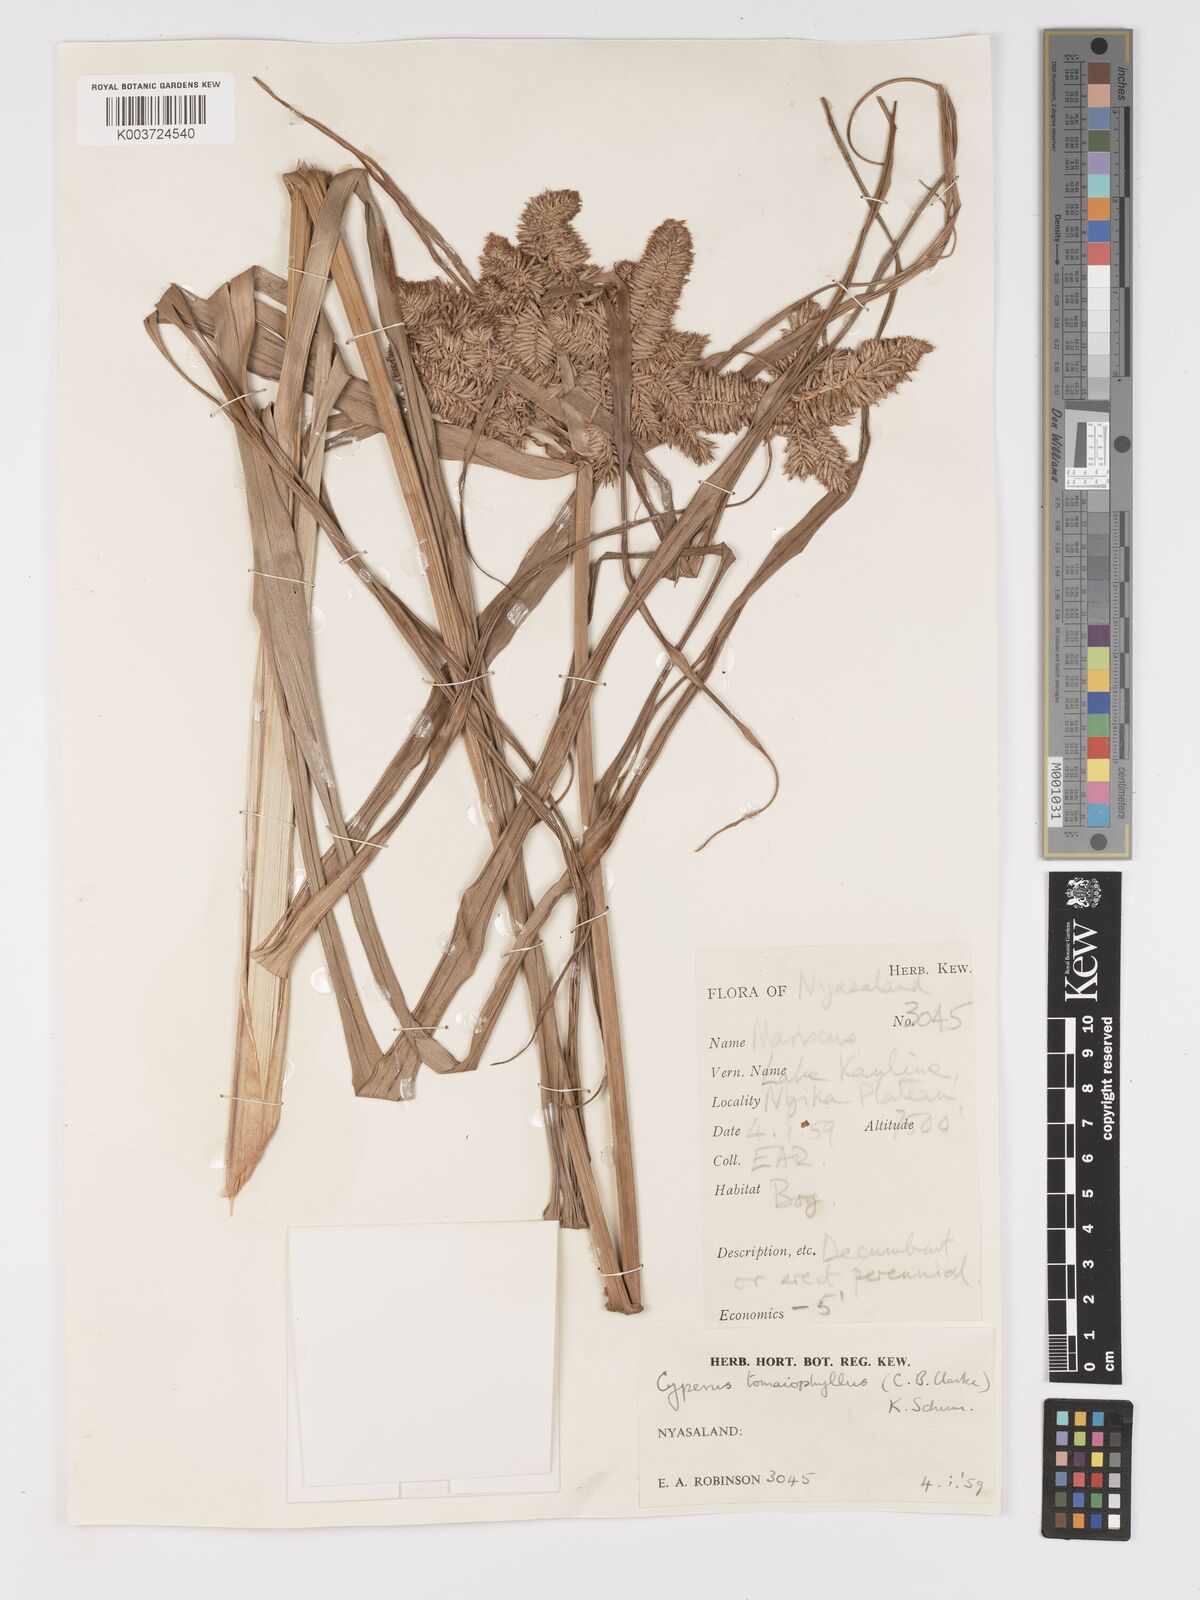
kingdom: Plantae
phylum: Tracheophyta
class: Liliopsida
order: Poales
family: Cyperaceae
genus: Cyperus
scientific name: Cyperus tomaiophyllus
